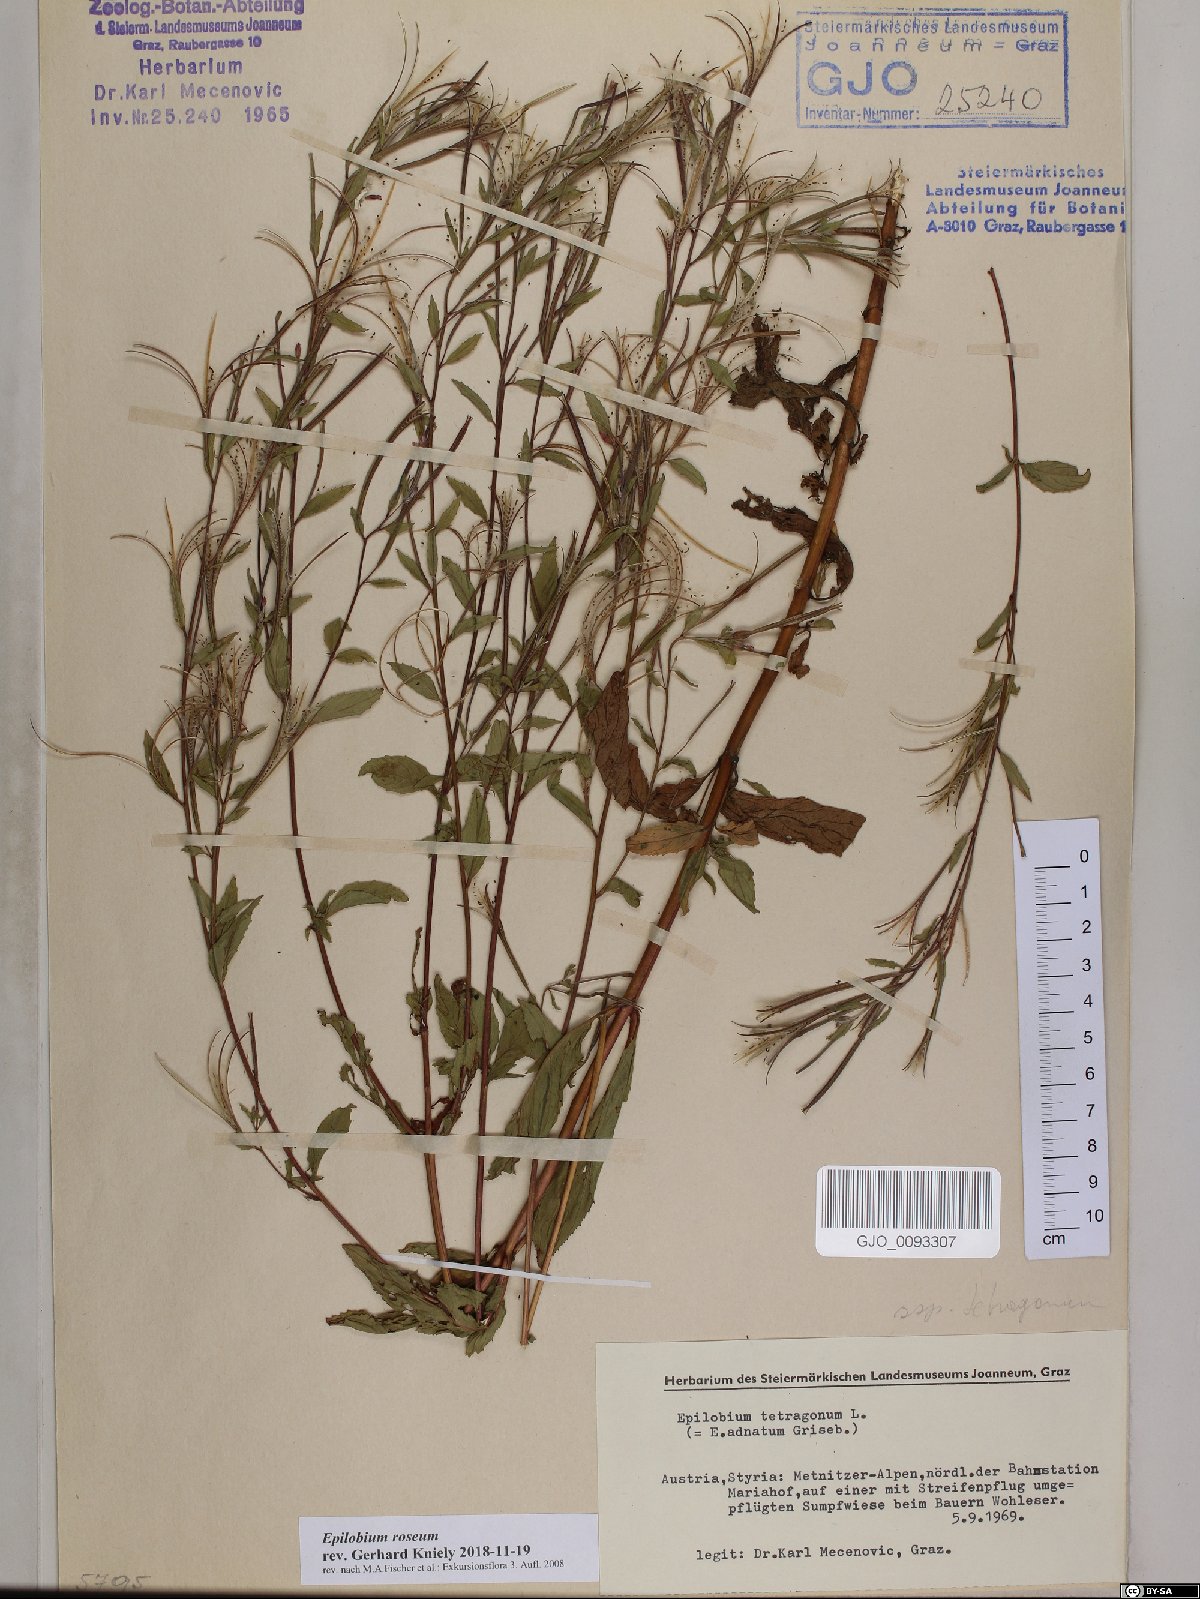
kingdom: Plantae
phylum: Tracheophyta
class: Magnoliopsida
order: Myrtales
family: Onagraceae
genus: Epilobium
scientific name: Epilobium roseum
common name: Pale willowherb
